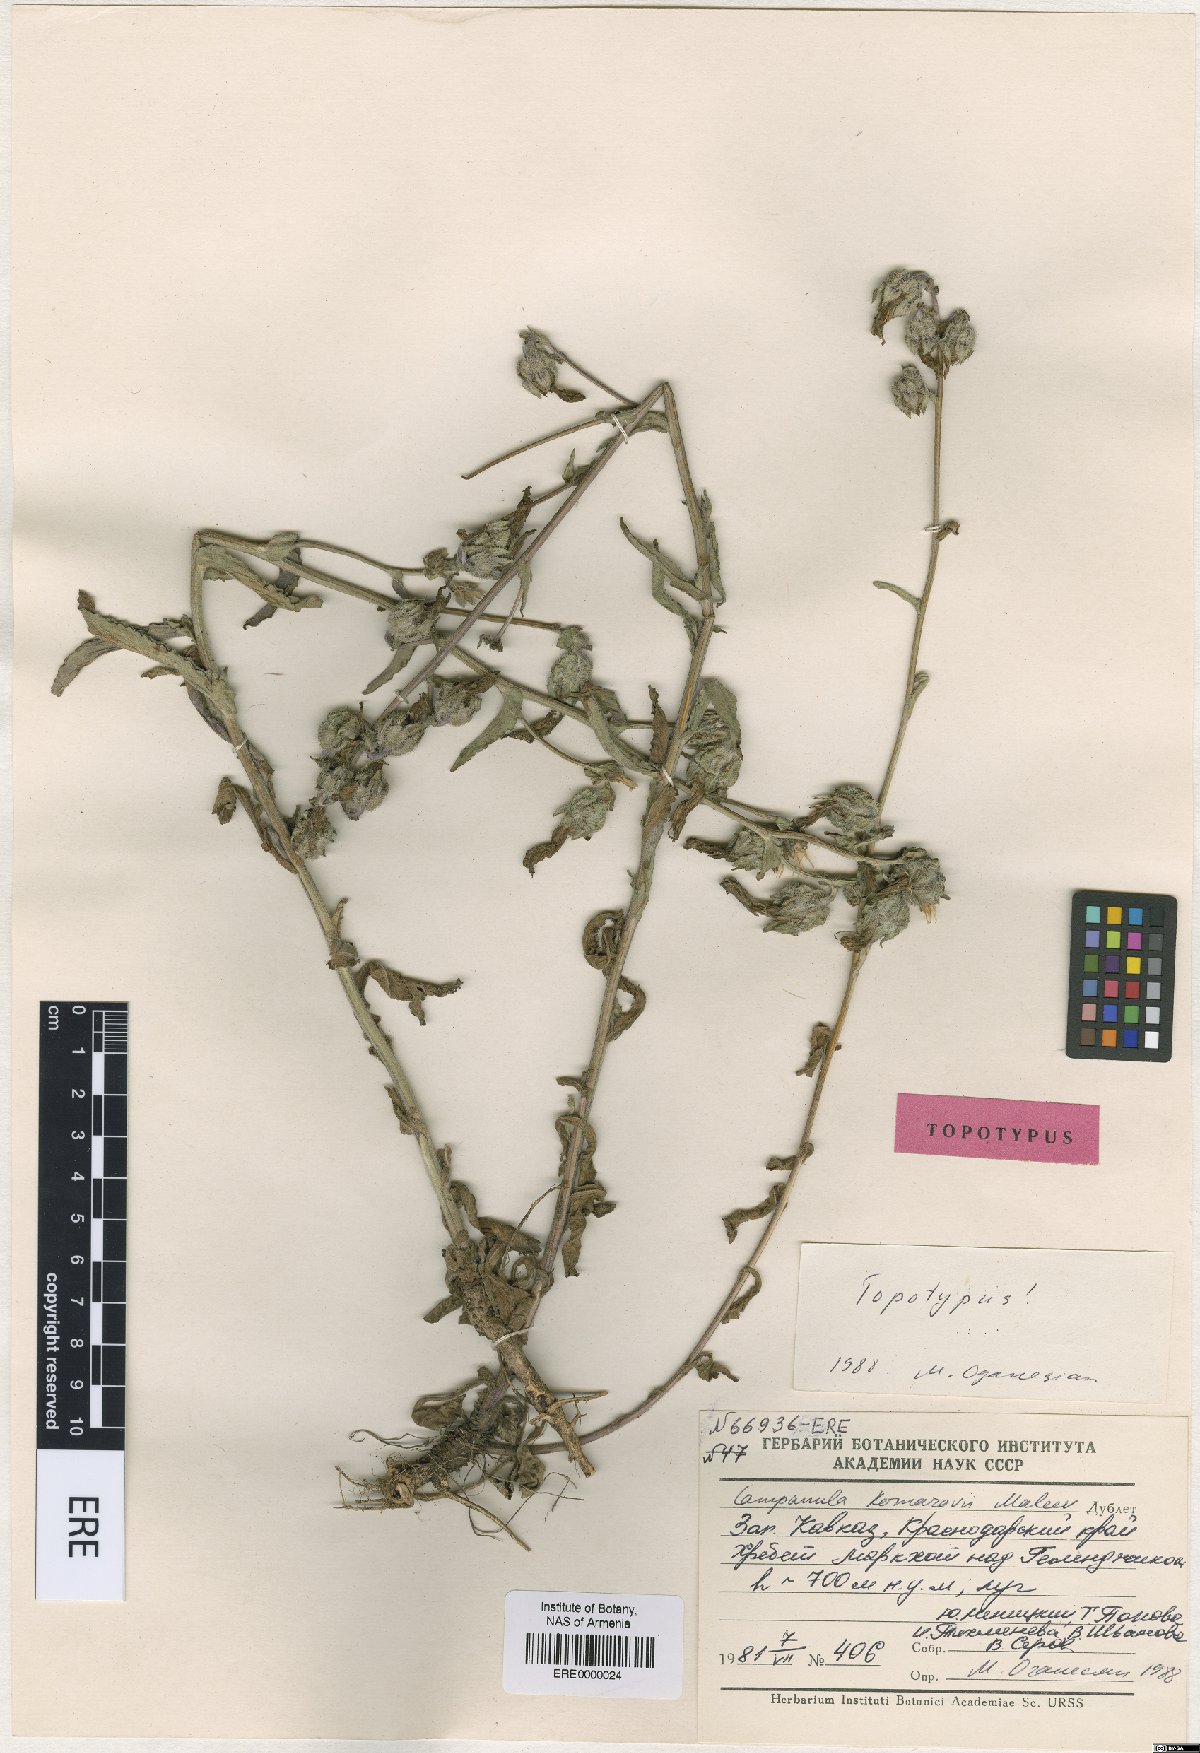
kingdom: Plantae
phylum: Tracheophyta
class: Magnoliopsida
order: Asterales
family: Campanulaceae
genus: Campanula
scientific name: Campanula komarovii
